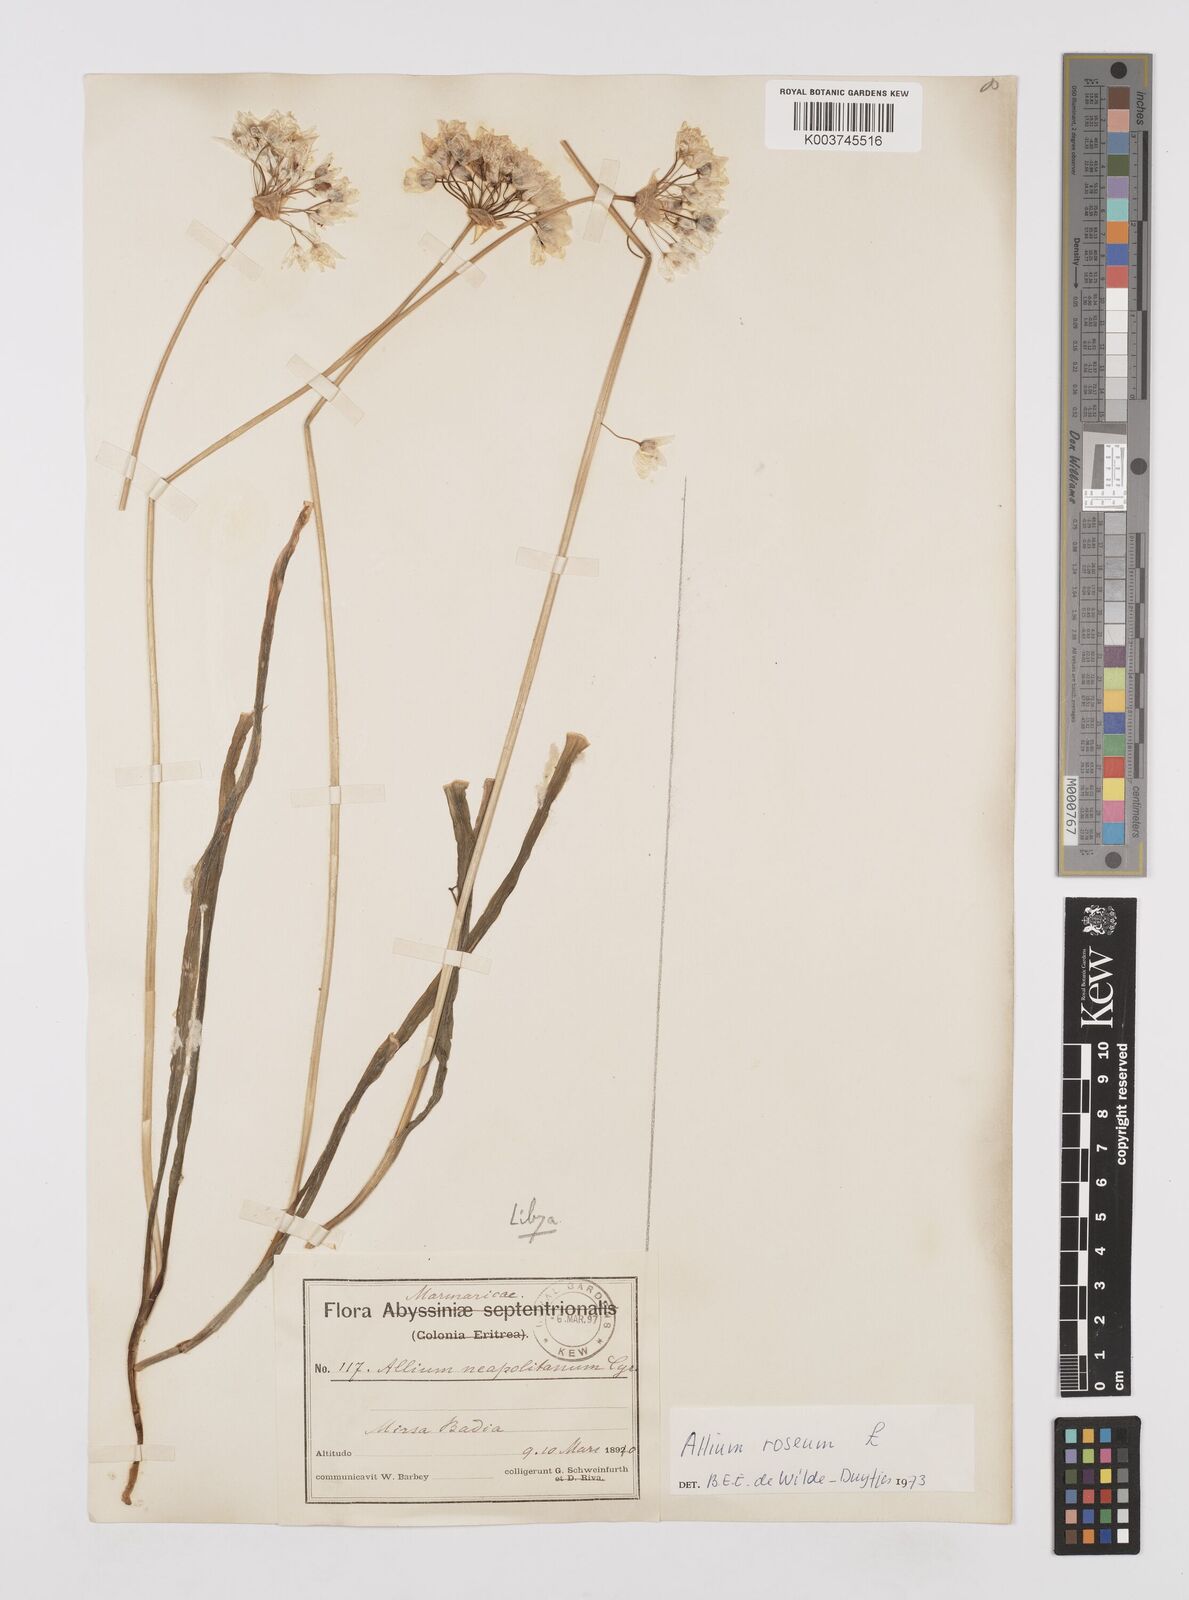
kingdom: Plantae
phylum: Tracheophyta
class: Liliopsida
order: Asparagales
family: Amaryllidaceae
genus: Allium
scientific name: Allium roseum
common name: Rosy garlic
